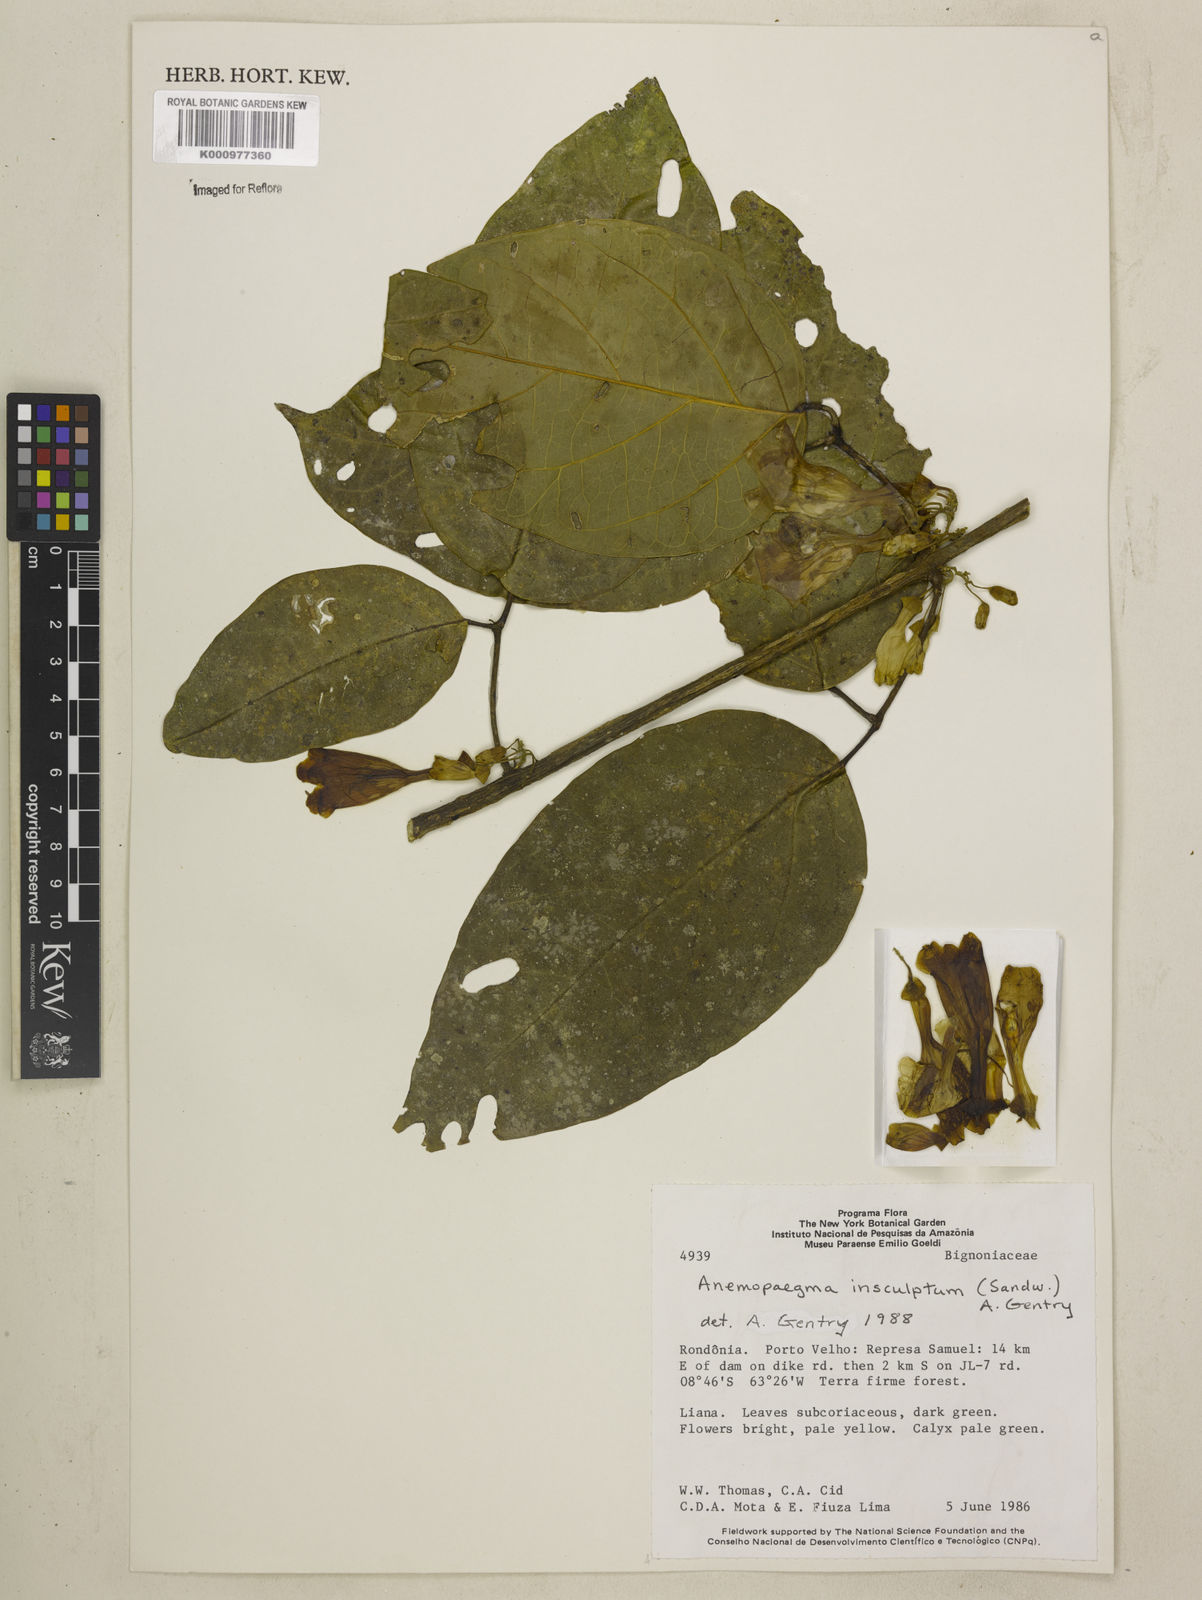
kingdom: Plantae
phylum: Tracheophyta
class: Magnoliopsida
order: Lamiales
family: Bignoniaceae
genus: Anemopaegma
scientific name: Anemopaegma insculptum
